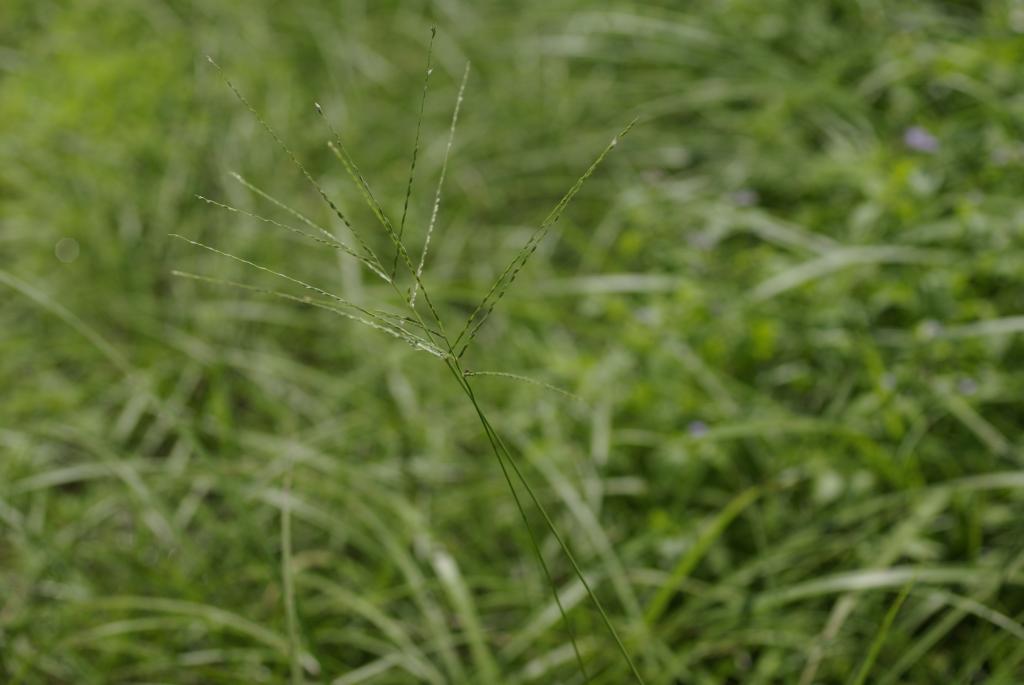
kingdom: Plantae
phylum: Tracheophyta
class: Liliopsida
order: Poales
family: Poaceae
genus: Digitaria
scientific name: Digitaria setigera
